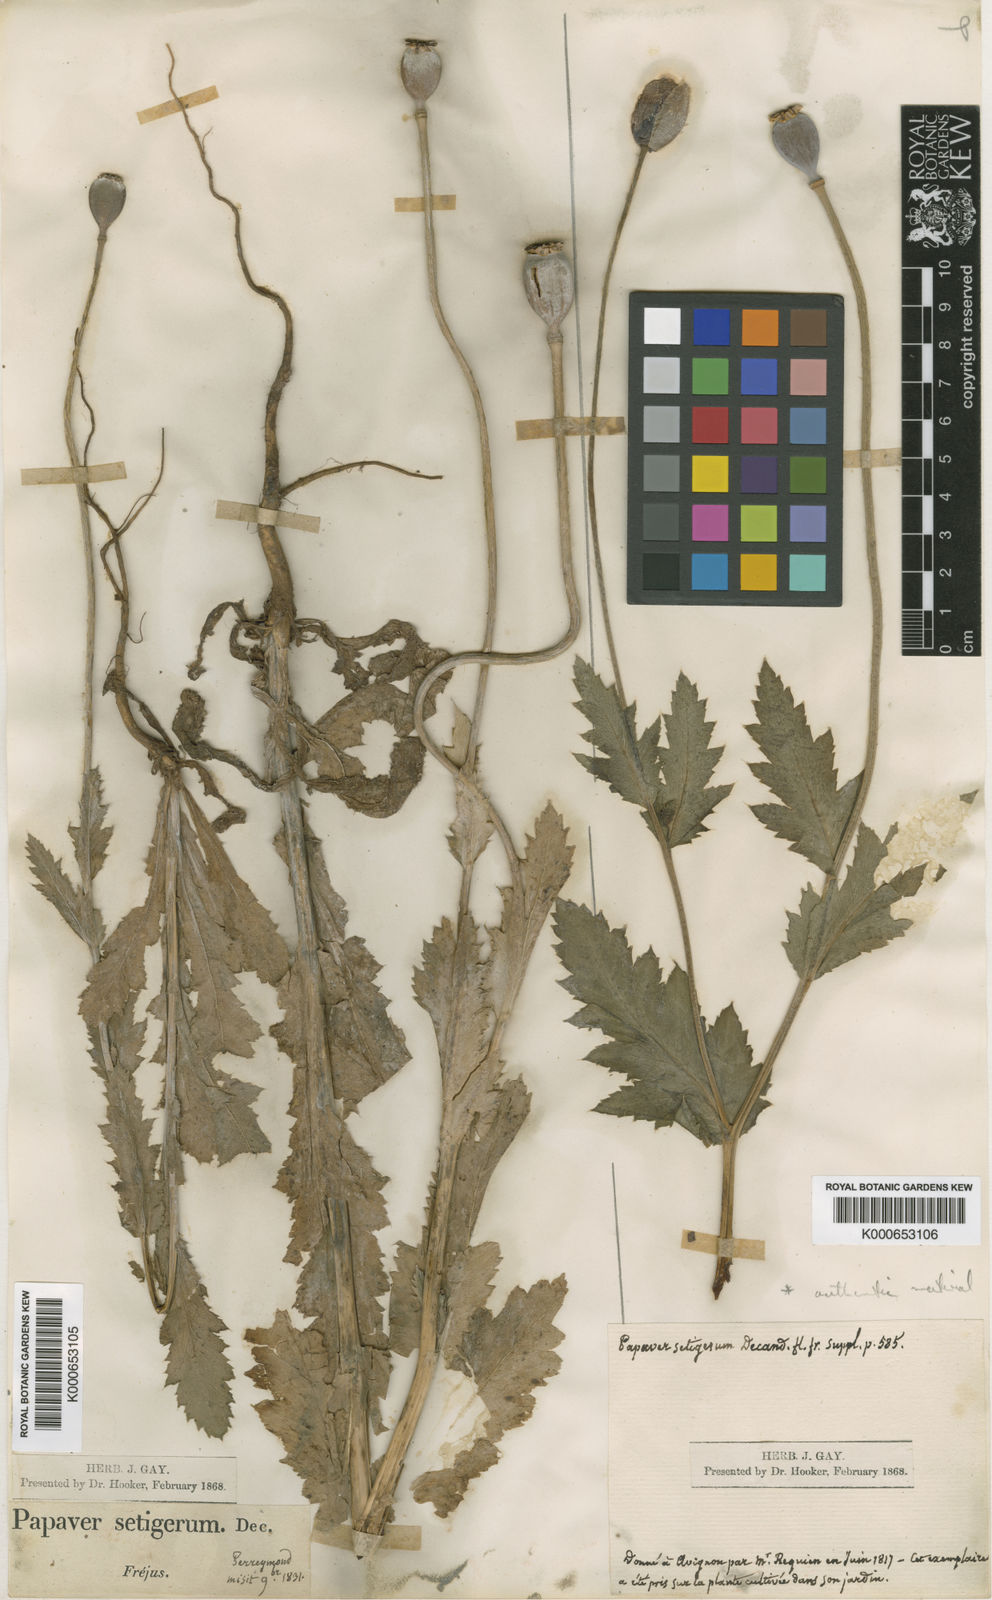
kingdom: Plantae
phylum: Tracheophyta
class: Magnoliopsida
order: Ranunculales
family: Papaveraceae
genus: Papaver
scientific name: Papaver somniferum
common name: Opium poppy
